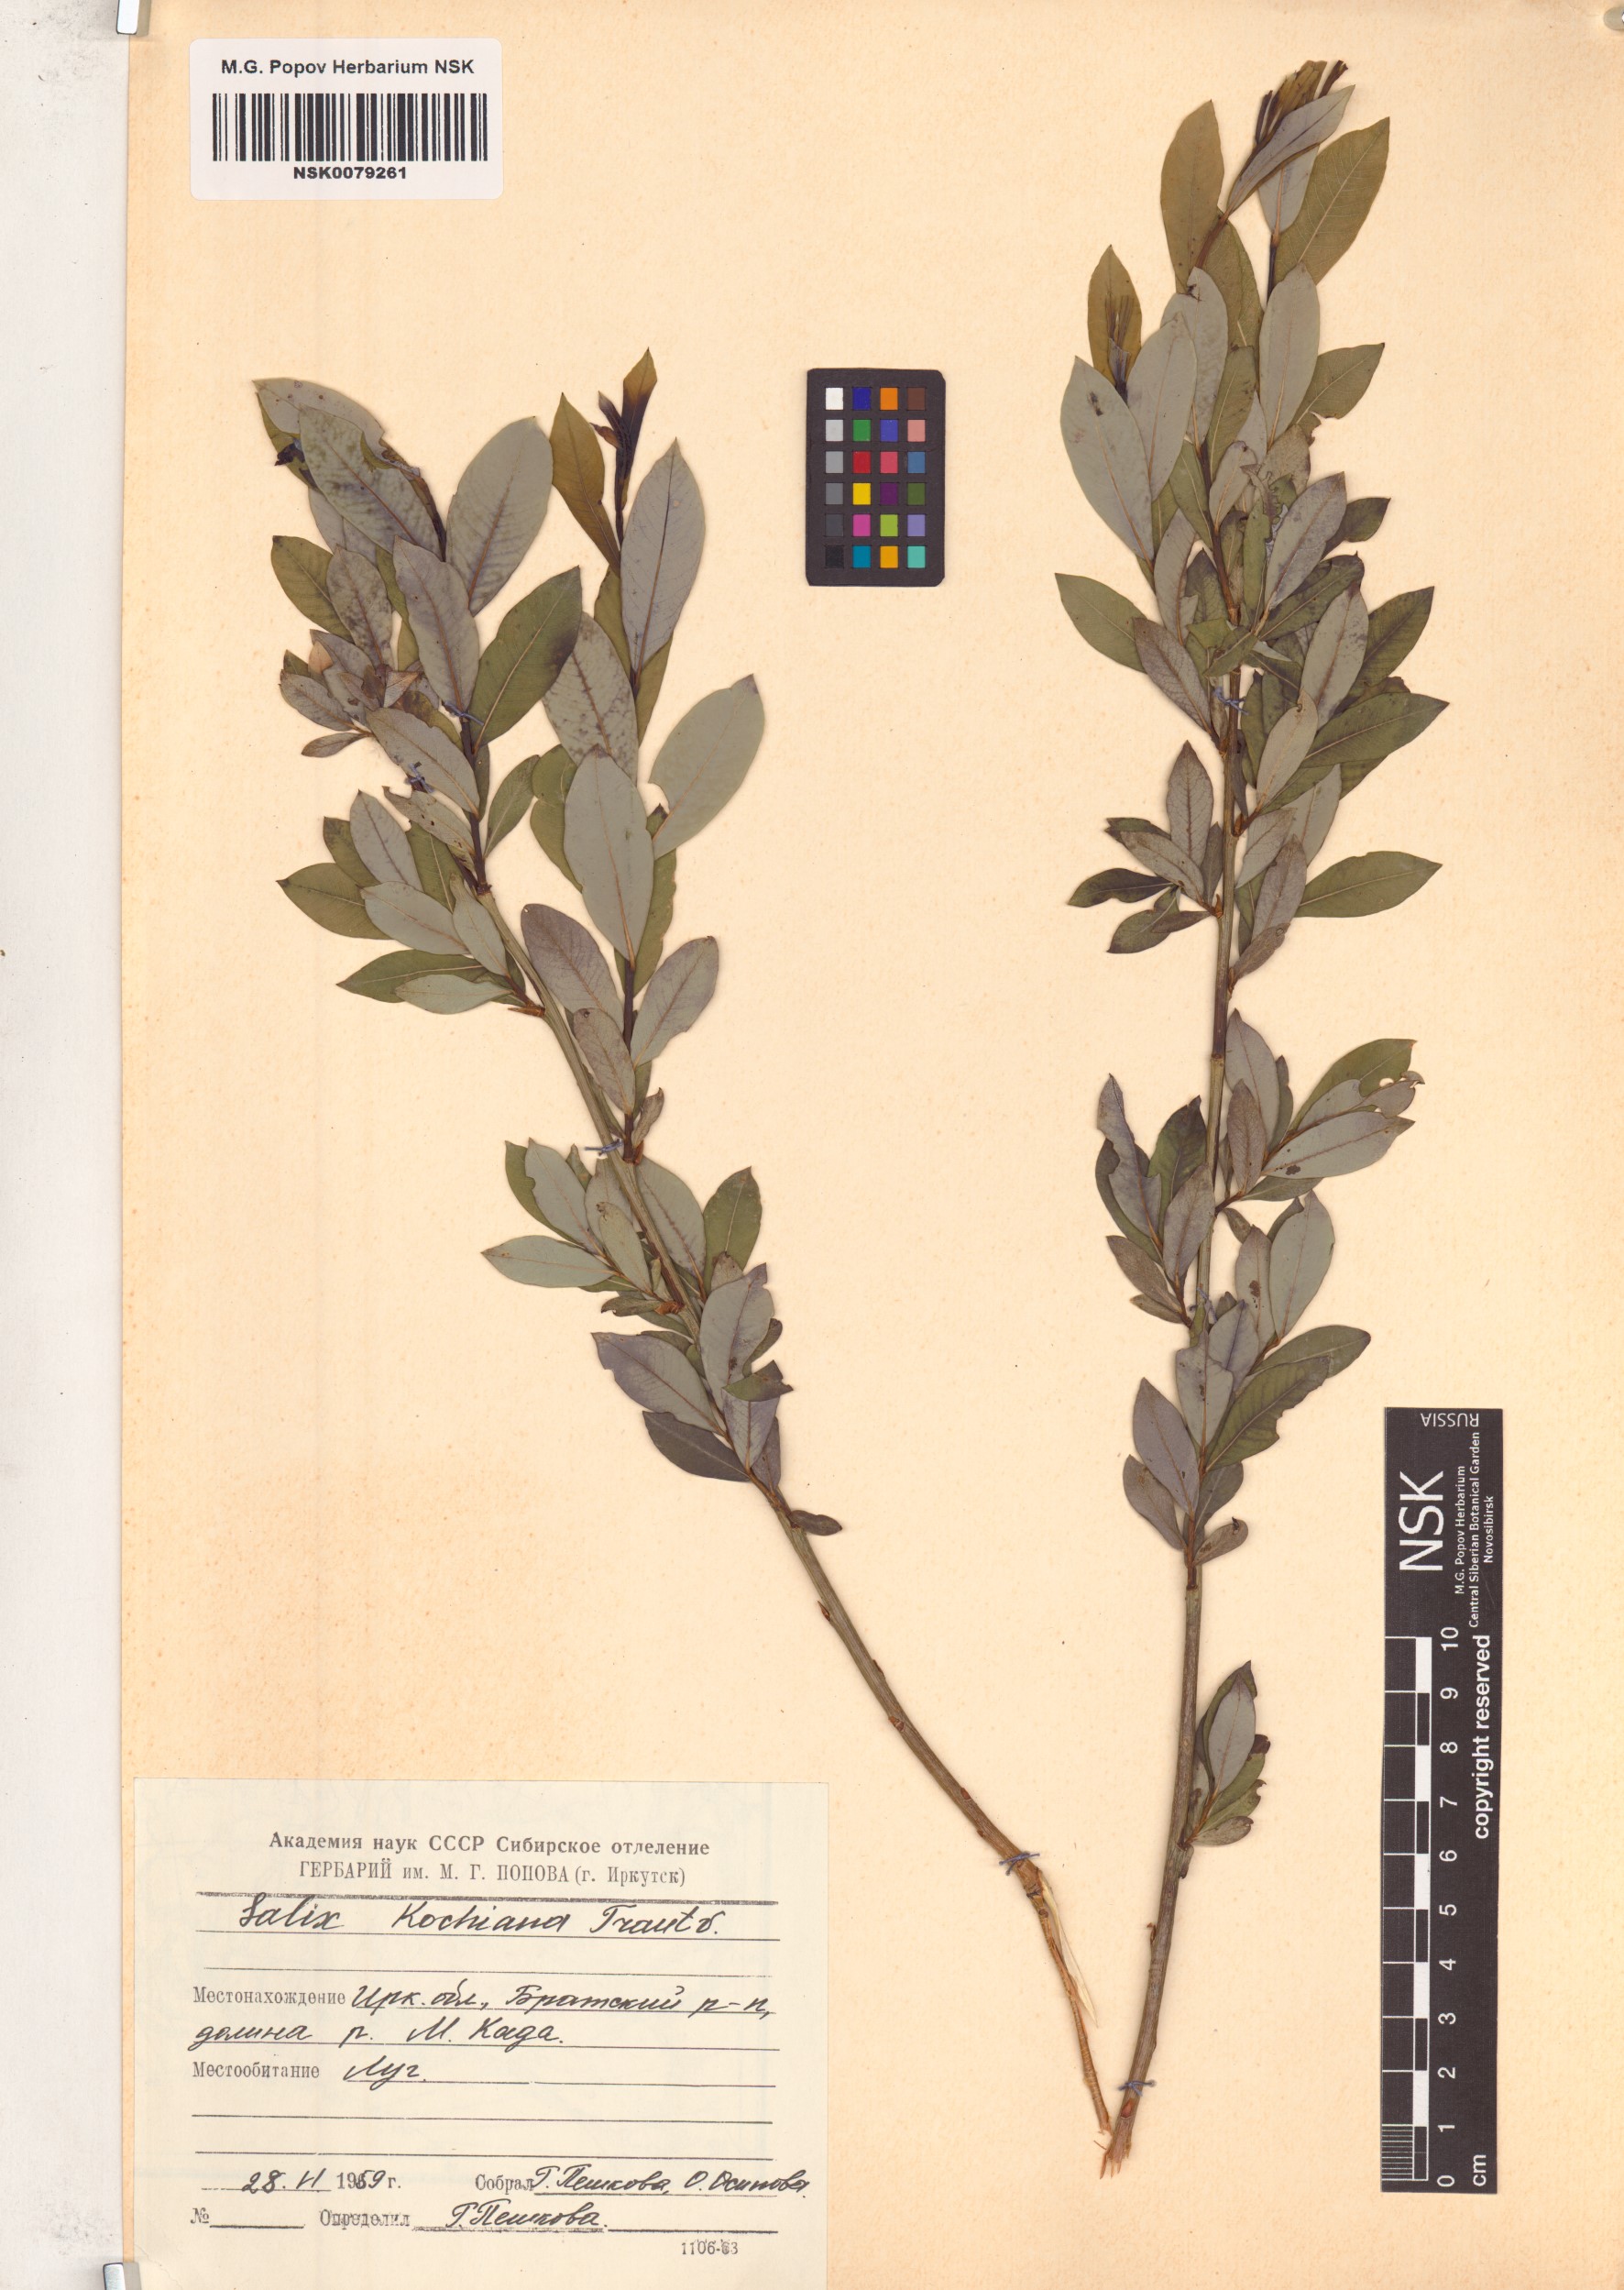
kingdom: Plantae
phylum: Tracheophyta
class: Magnoliopsida
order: Malpighiales
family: Salicaceae
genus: Salix
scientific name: Salix kochiana
